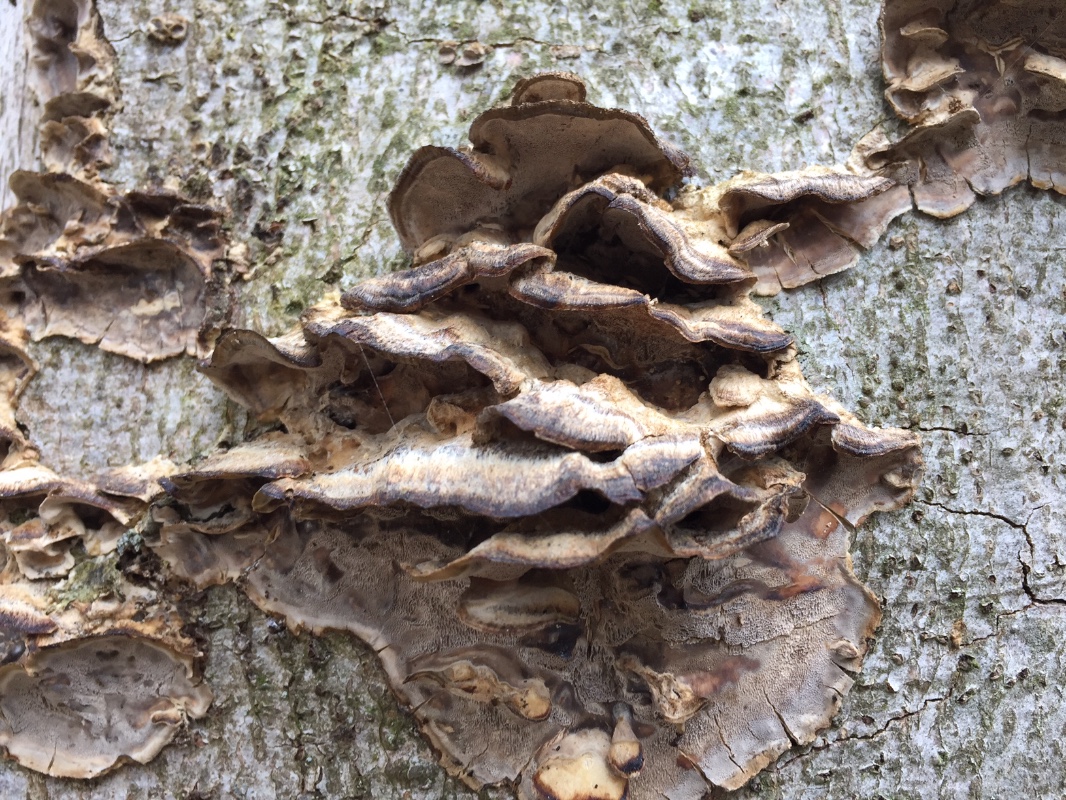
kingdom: Fungi
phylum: Basidiomycota
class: Agaricomycetes
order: Polyporales
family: Phanerochaetaceae
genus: Bjerkandera
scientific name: Bjerkandera adusta
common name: sveden sodporesvamp
